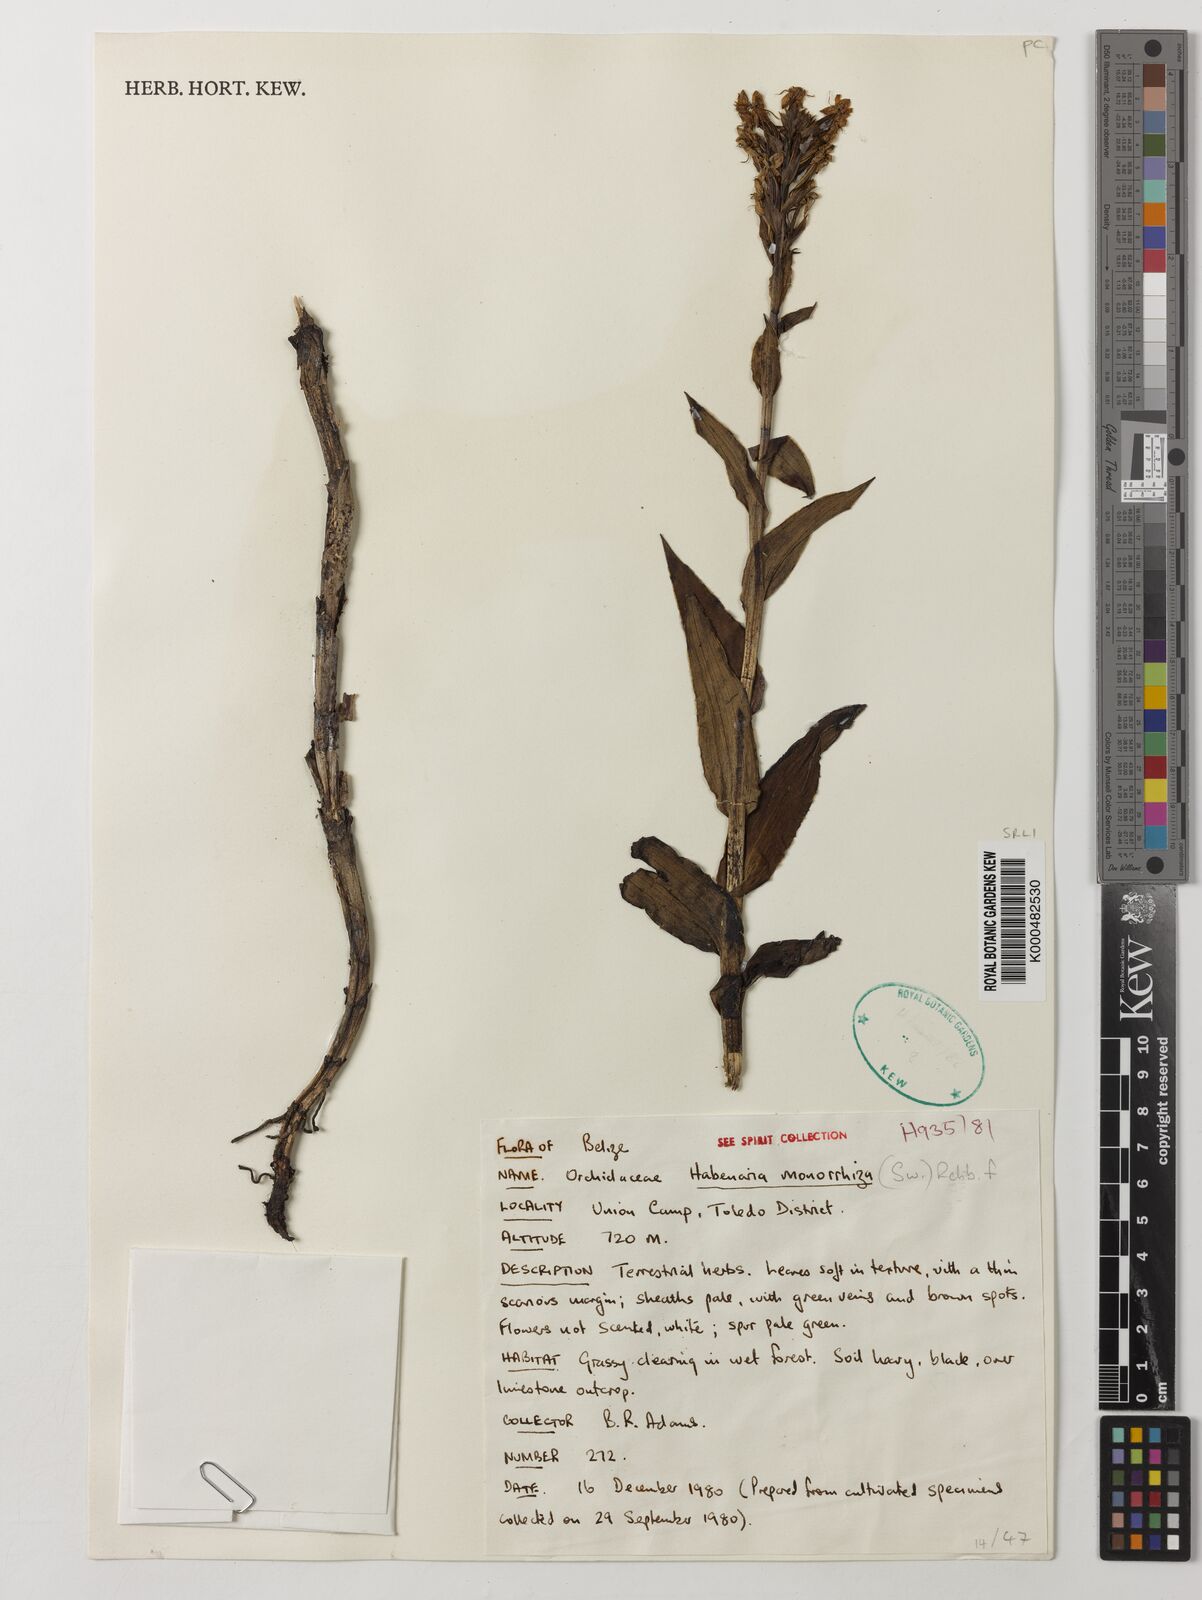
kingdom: Plantae
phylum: Tracheophyta
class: Liliopsida
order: Asparagales
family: Orchidaceae
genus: Habenaria
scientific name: Habenaria monorrhiza
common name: Tropical bog orchid
